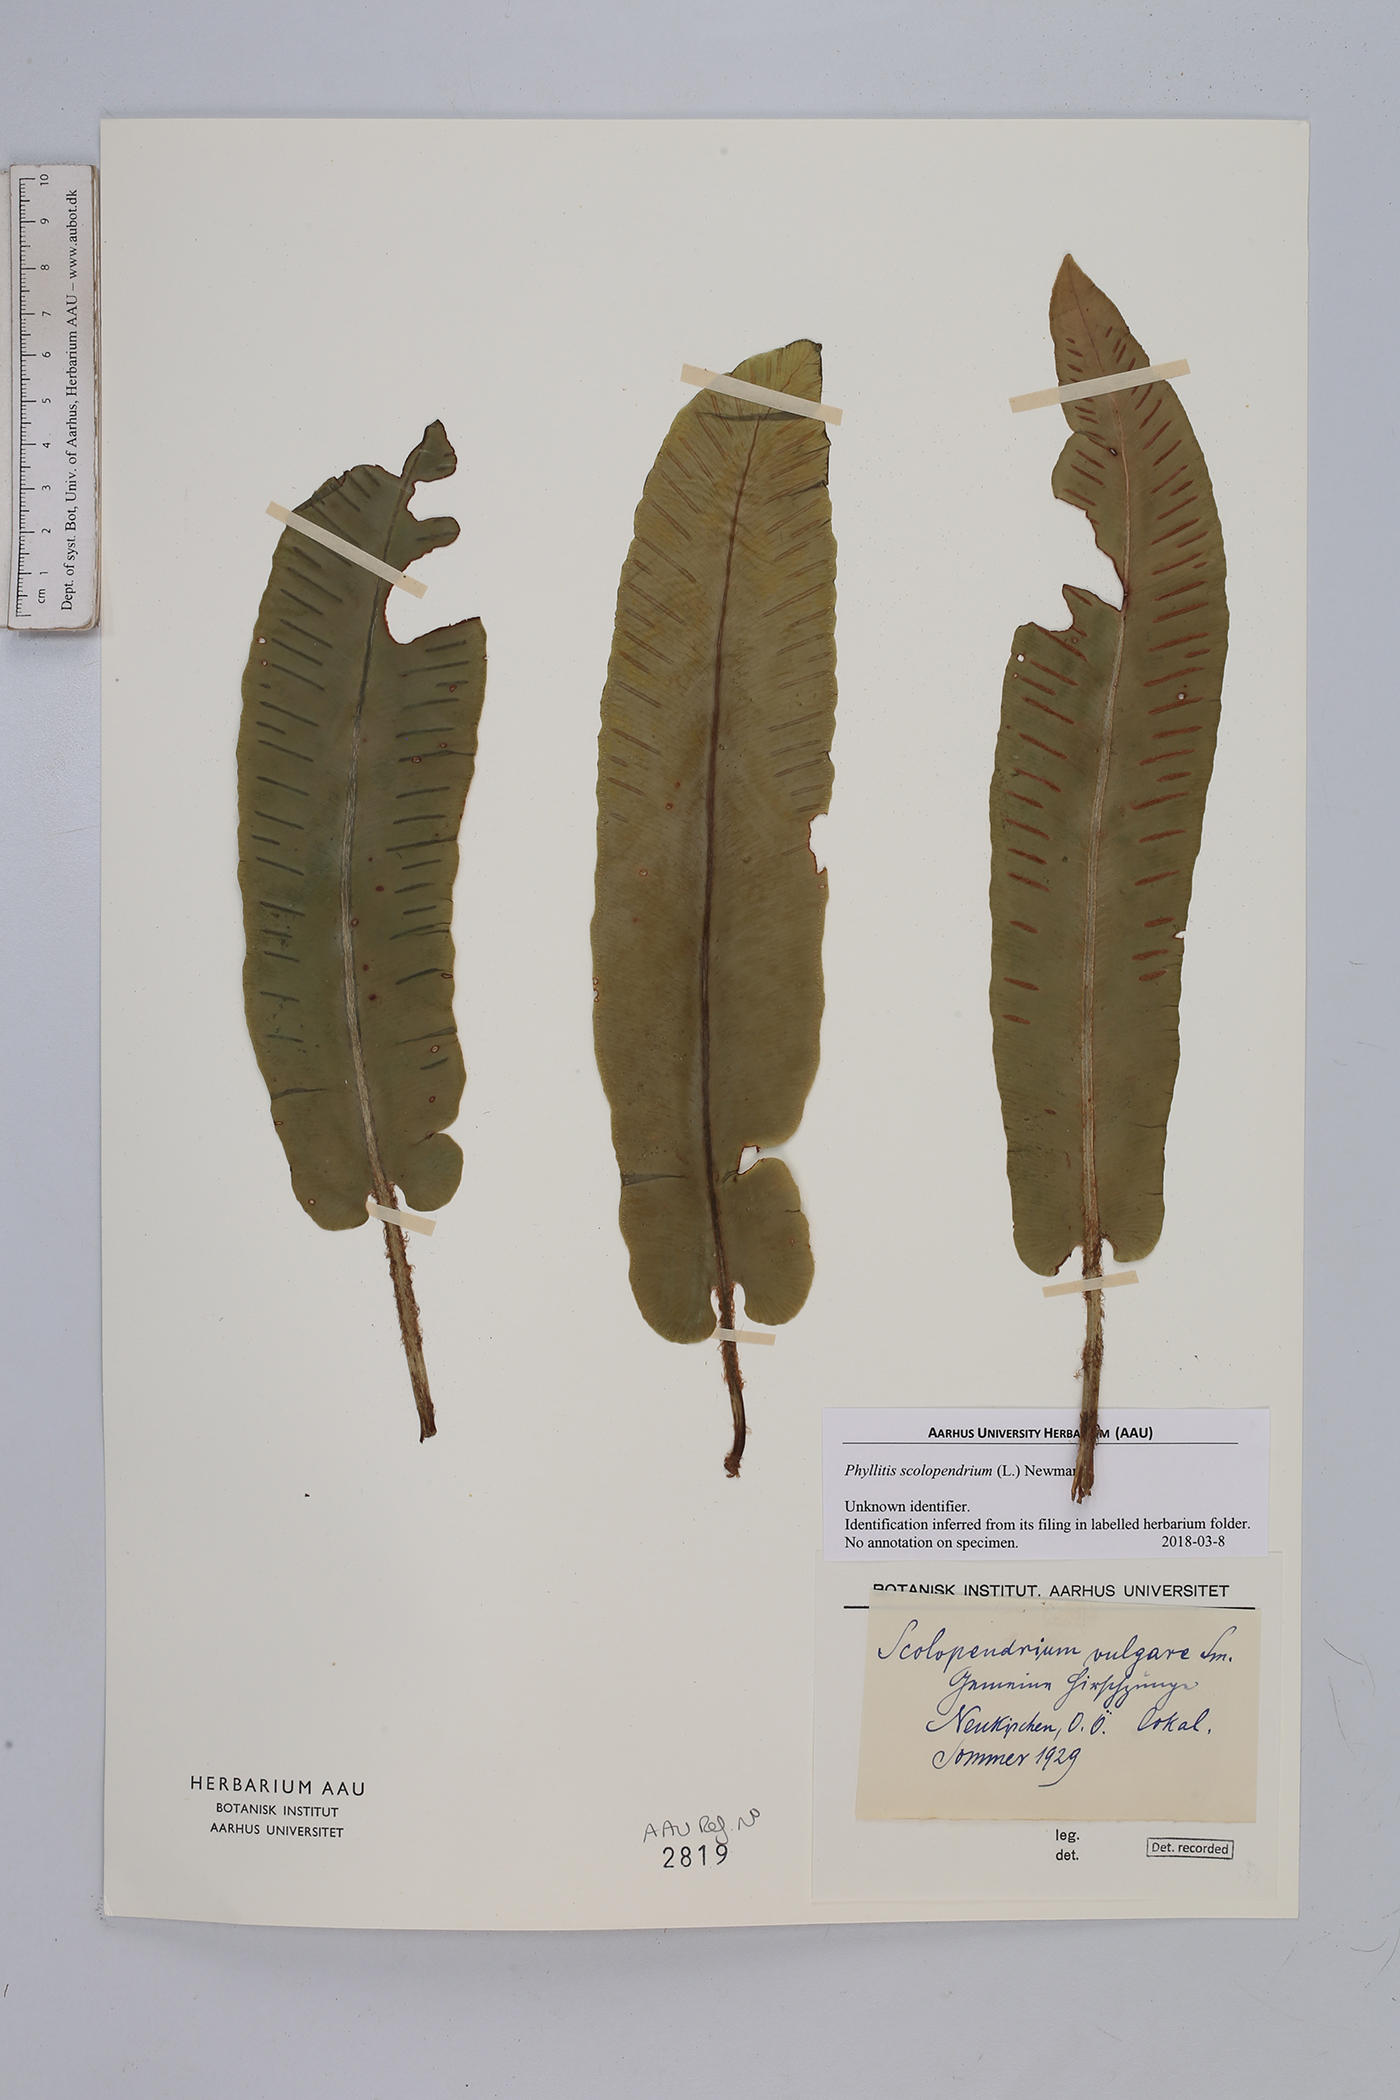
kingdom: Plantae
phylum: Tracheophyta
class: Polypodiopsida
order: Polypodiales
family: Aspleniaceae
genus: Asplenium
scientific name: Asplenium scolopendrium
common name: Hart's-tongue fern
